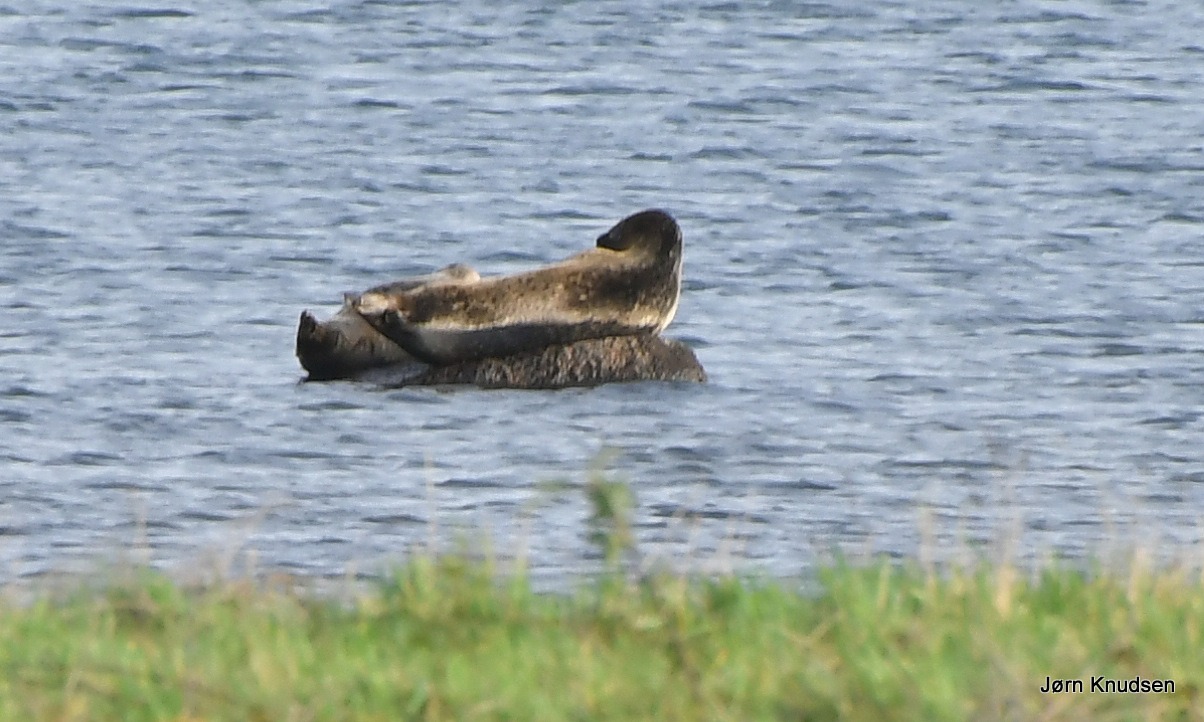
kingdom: Animalia
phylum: Chordata
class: Mammalia
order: Carnivora
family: Phocidae
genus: Phoca
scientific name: Phoca vitulina
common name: Spættet sæl
